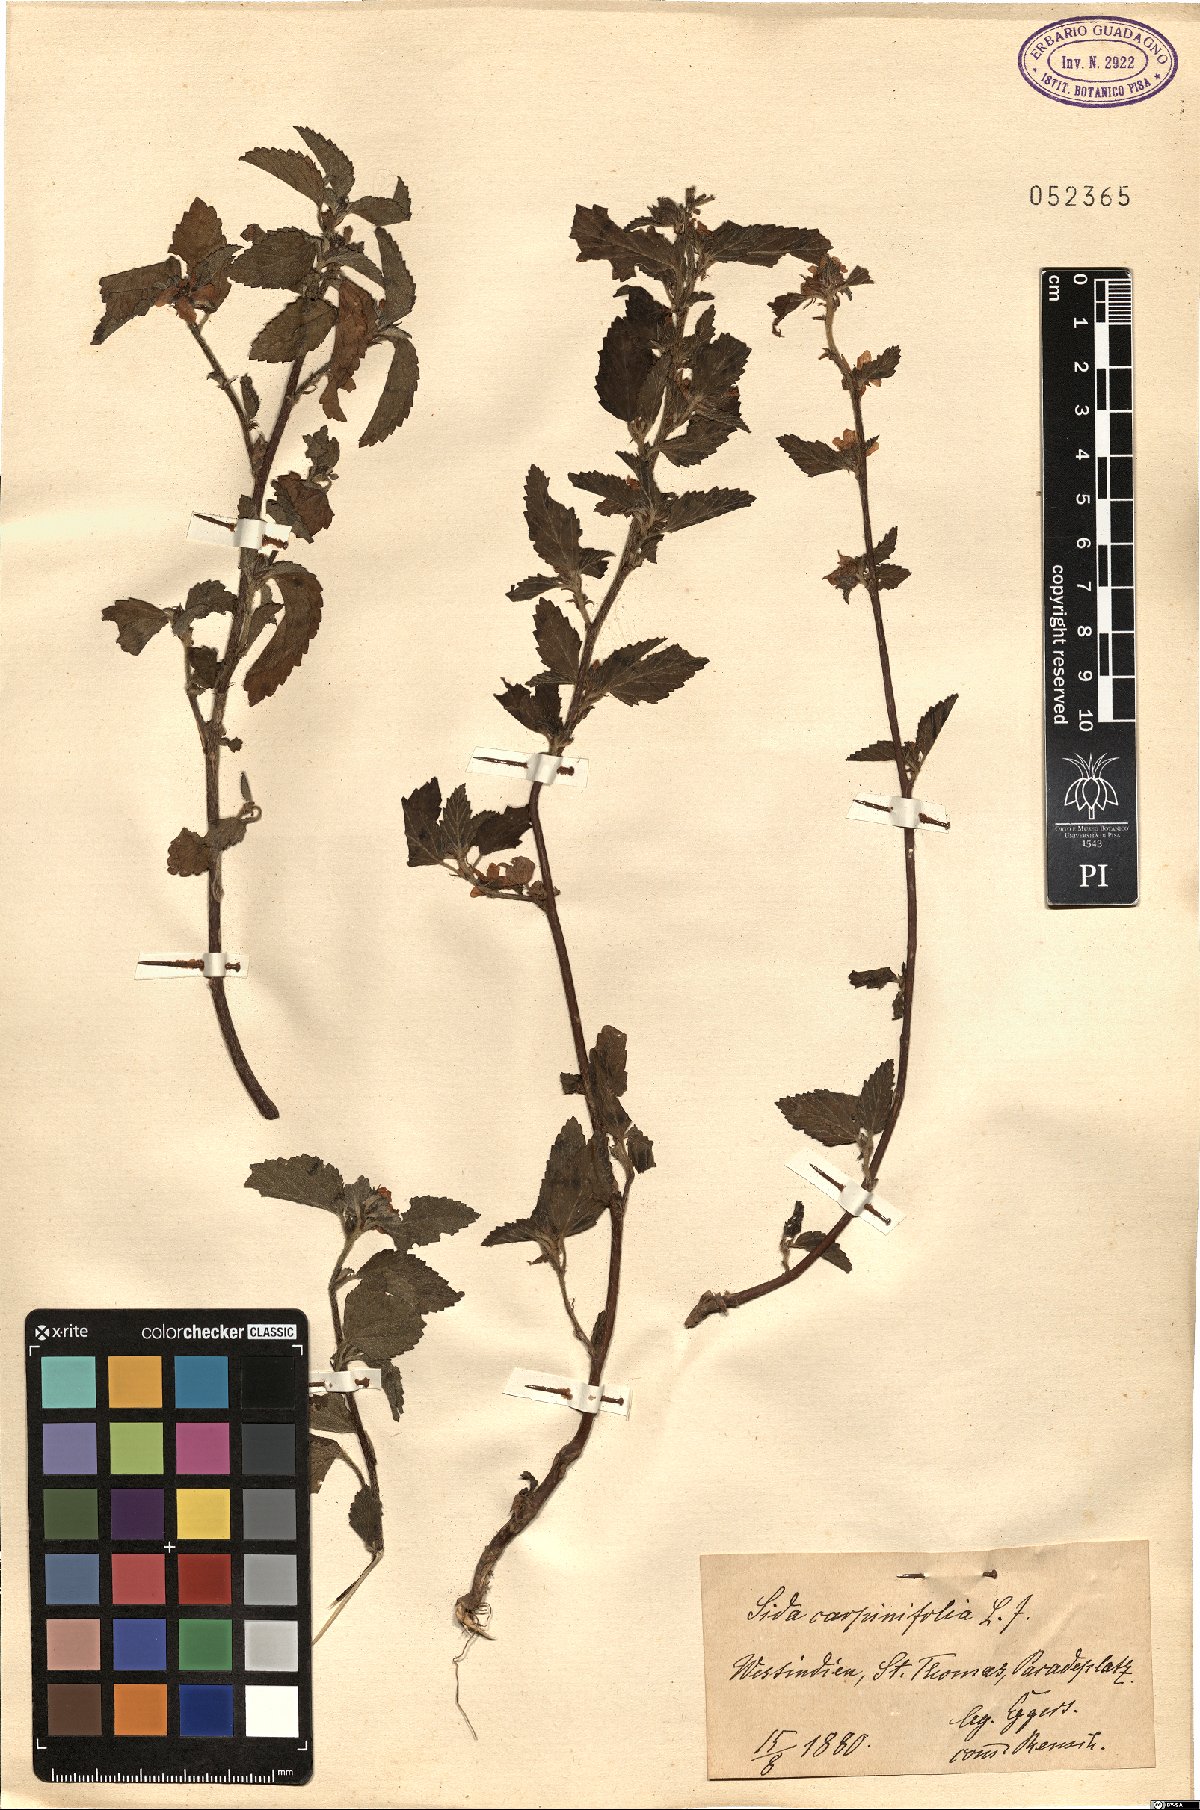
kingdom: Plantae
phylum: Tracheophyta
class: Magnoliopsida
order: Malvales
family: Malvaceae
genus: Sida
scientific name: Sida planicaulis
